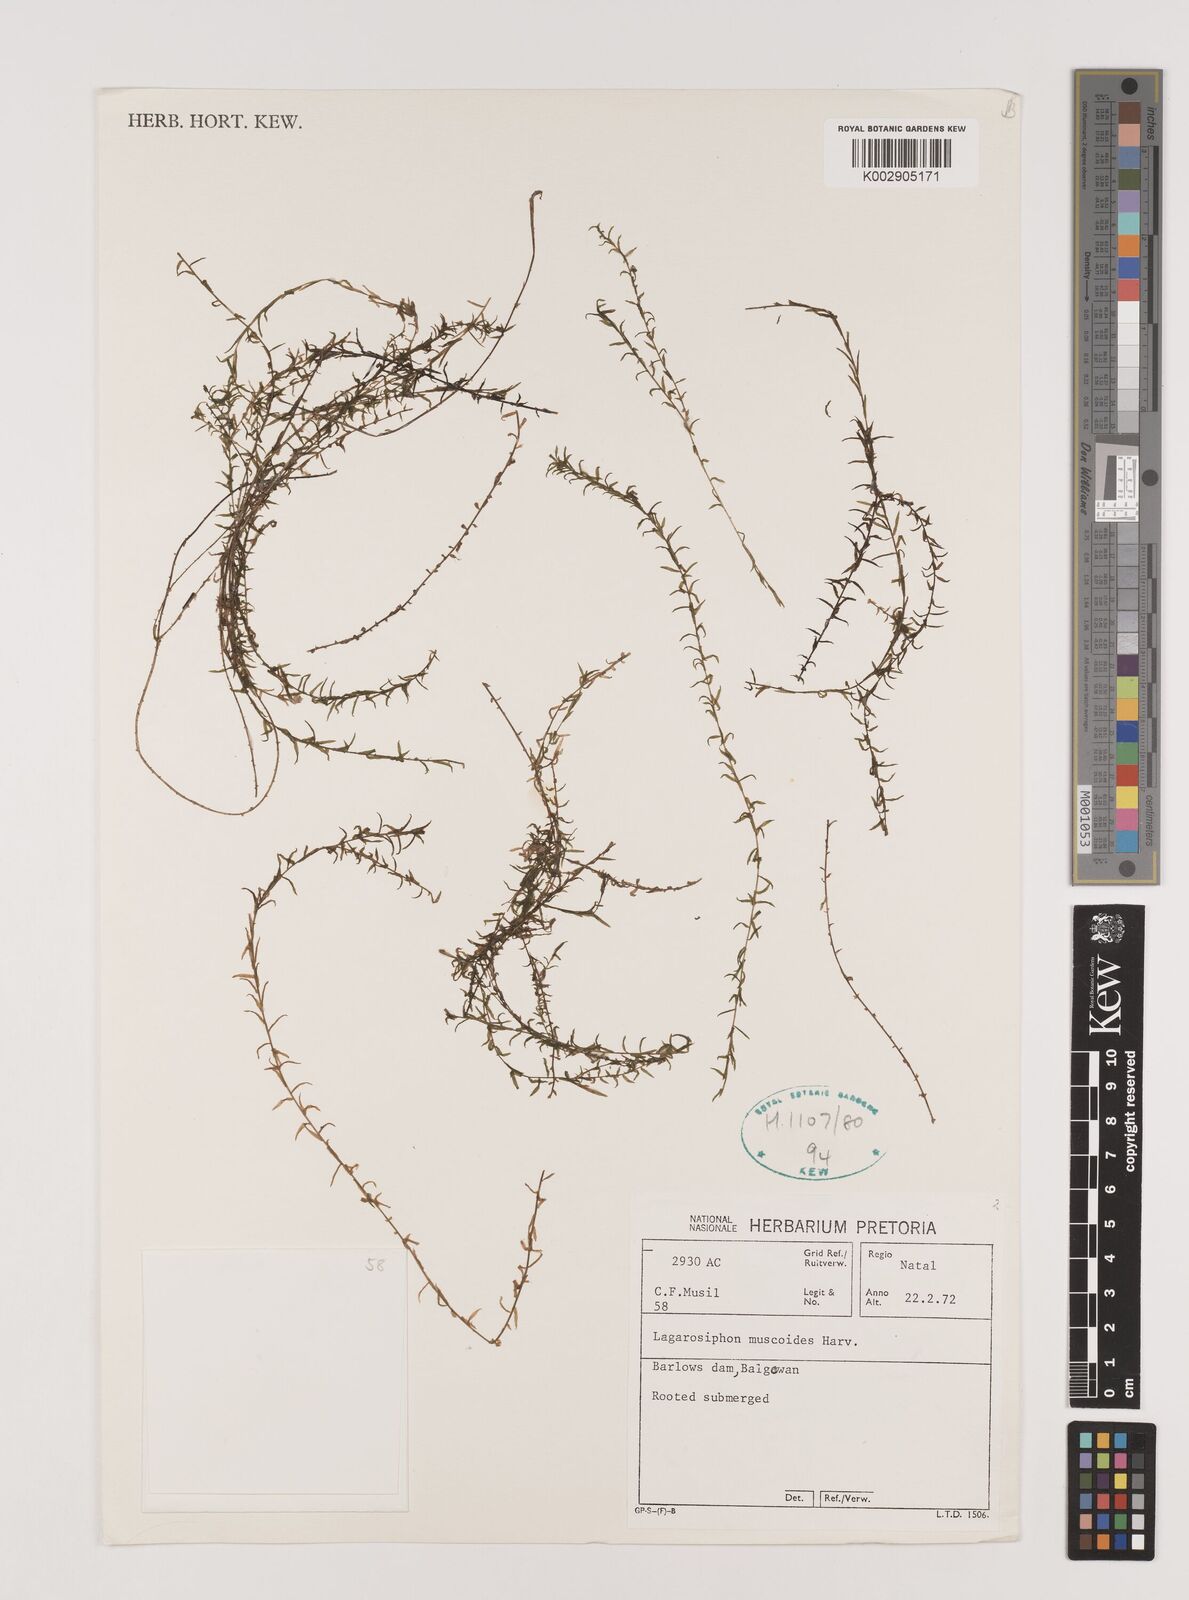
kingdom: Plantae
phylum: Tracheophyta
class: Liliopsida
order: Alismatales
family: Hydrocharitaceae
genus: Lagarosiphon
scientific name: Lagarosiphon muscoides
